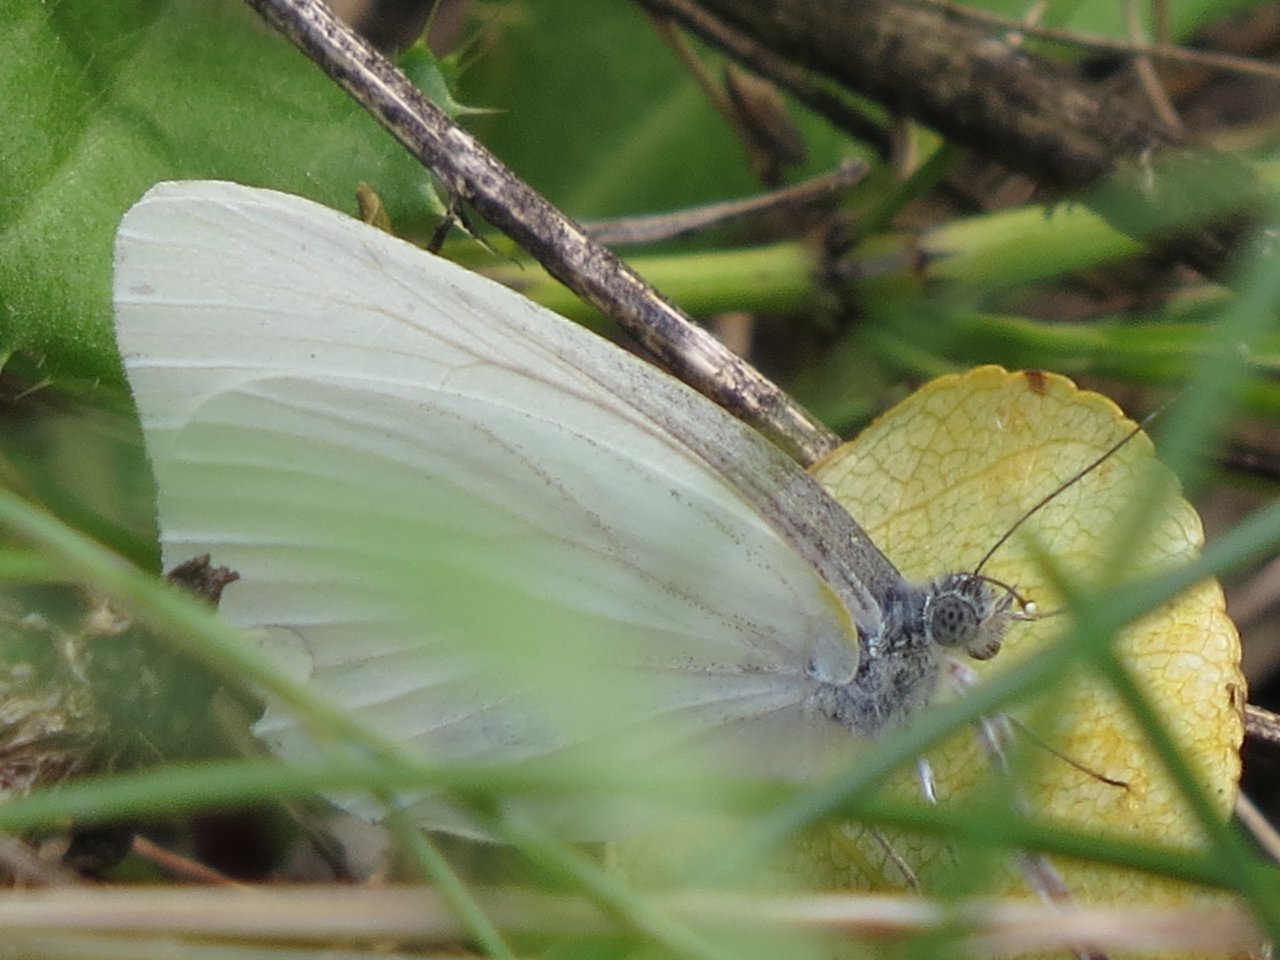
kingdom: Animalia
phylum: Arthropoda
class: Insecta
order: Lepidoptera
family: Pieridae
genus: Pieris
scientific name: Pieris oleracea
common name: Mustard White
